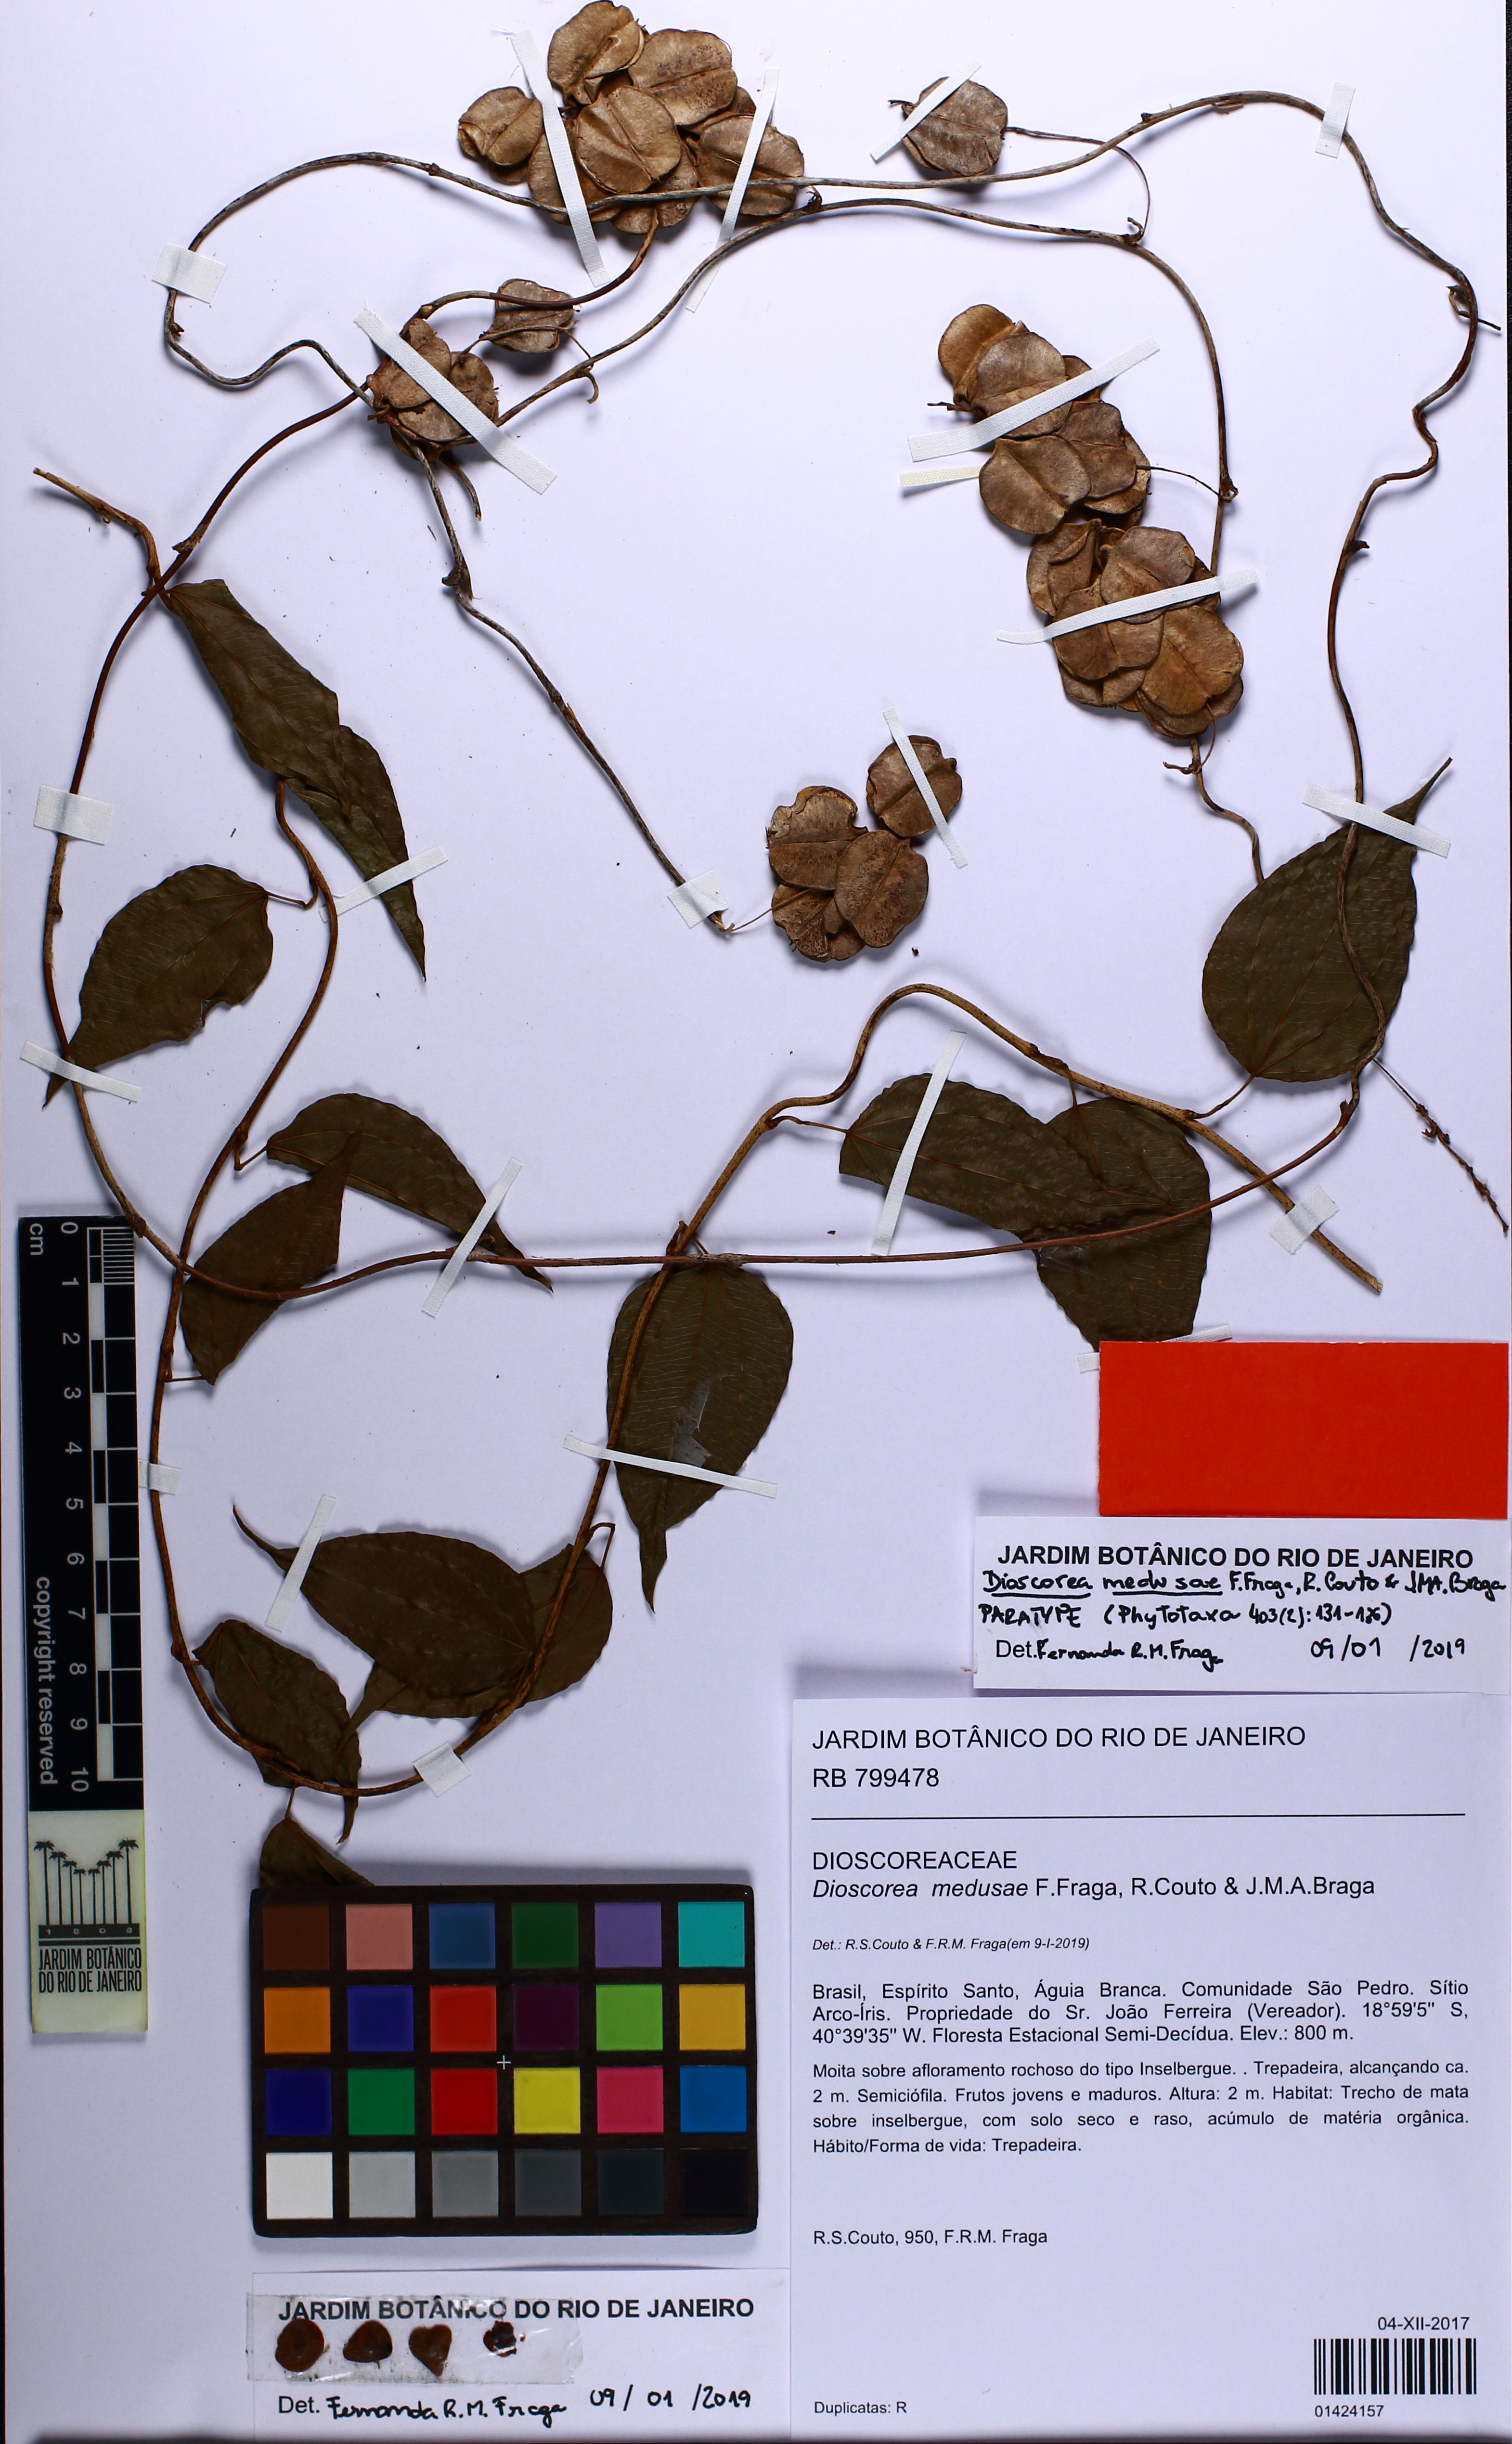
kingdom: Plantae
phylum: Tracheophyta
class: Liliopsida
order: Dioscoreales
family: Dioscoreaceae
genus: Dioscorea
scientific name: Dioscorea medusae
